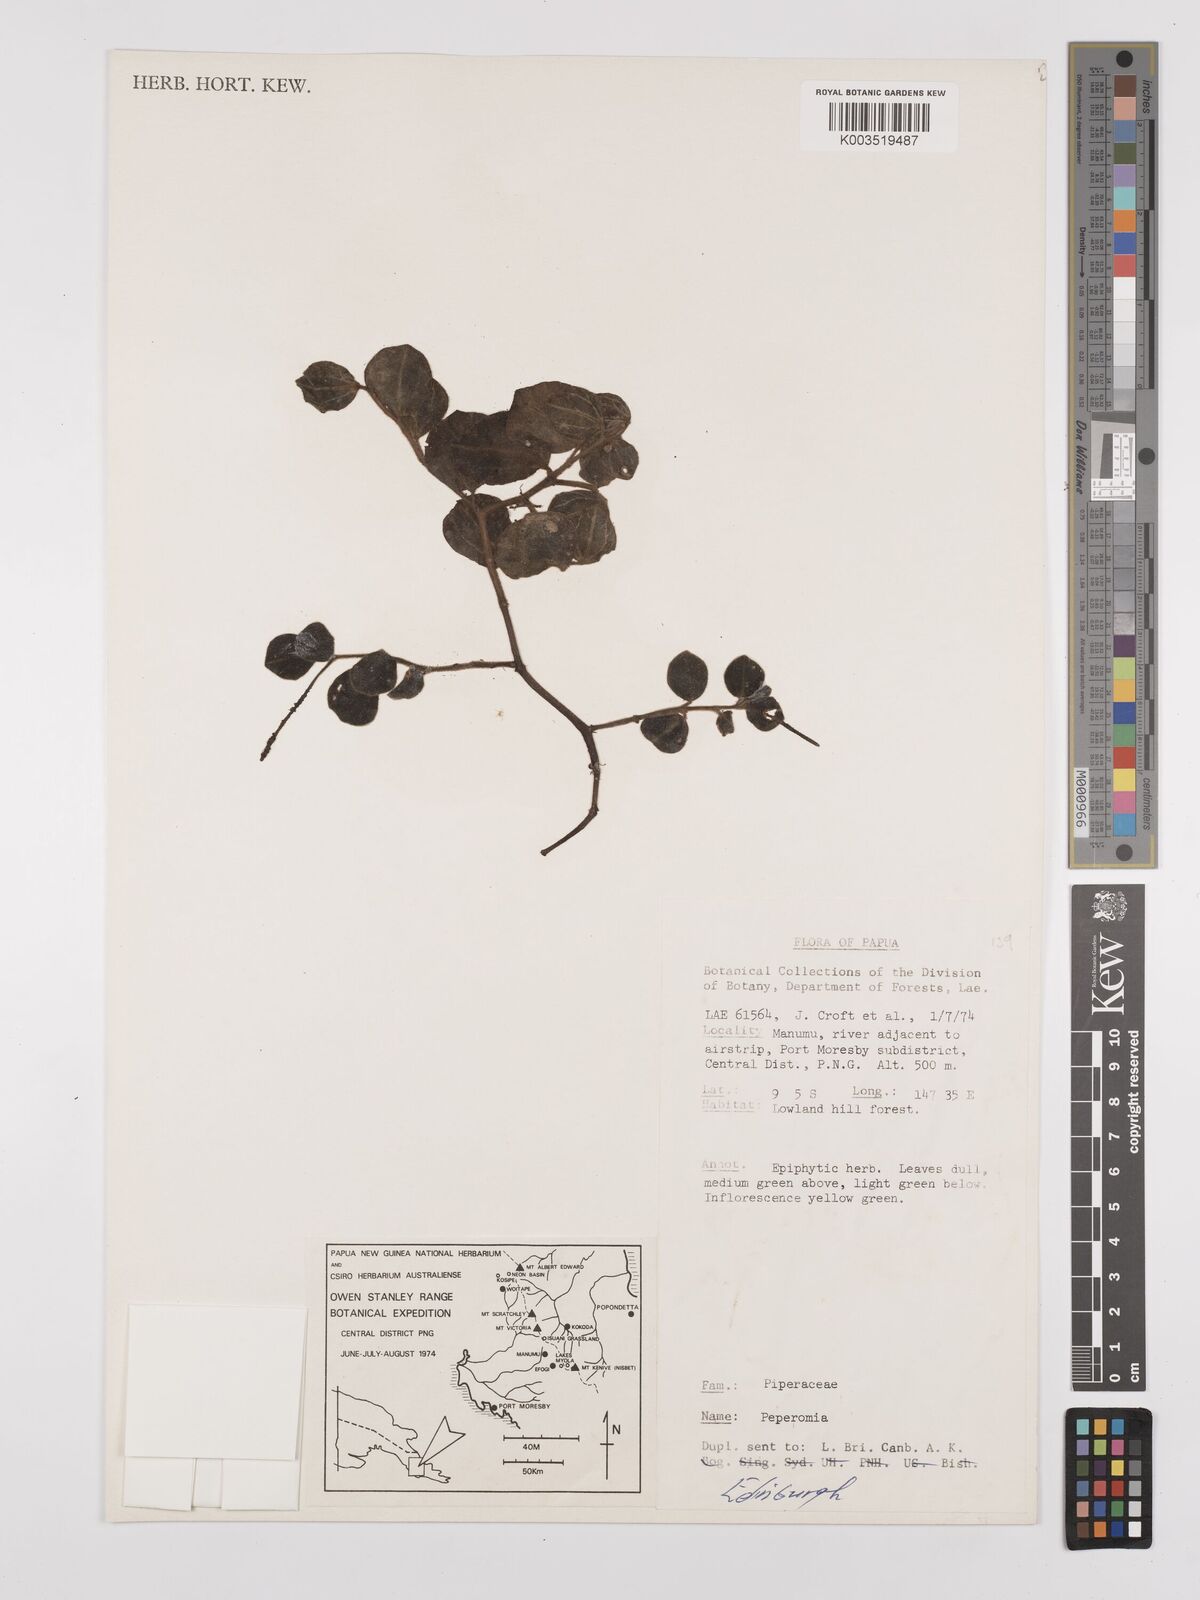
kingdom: Plantae
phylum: Tracheophyta
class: Magnoliopsida
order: Piperales
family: Piperaceae
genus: Peperomia
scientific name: Peperomia
